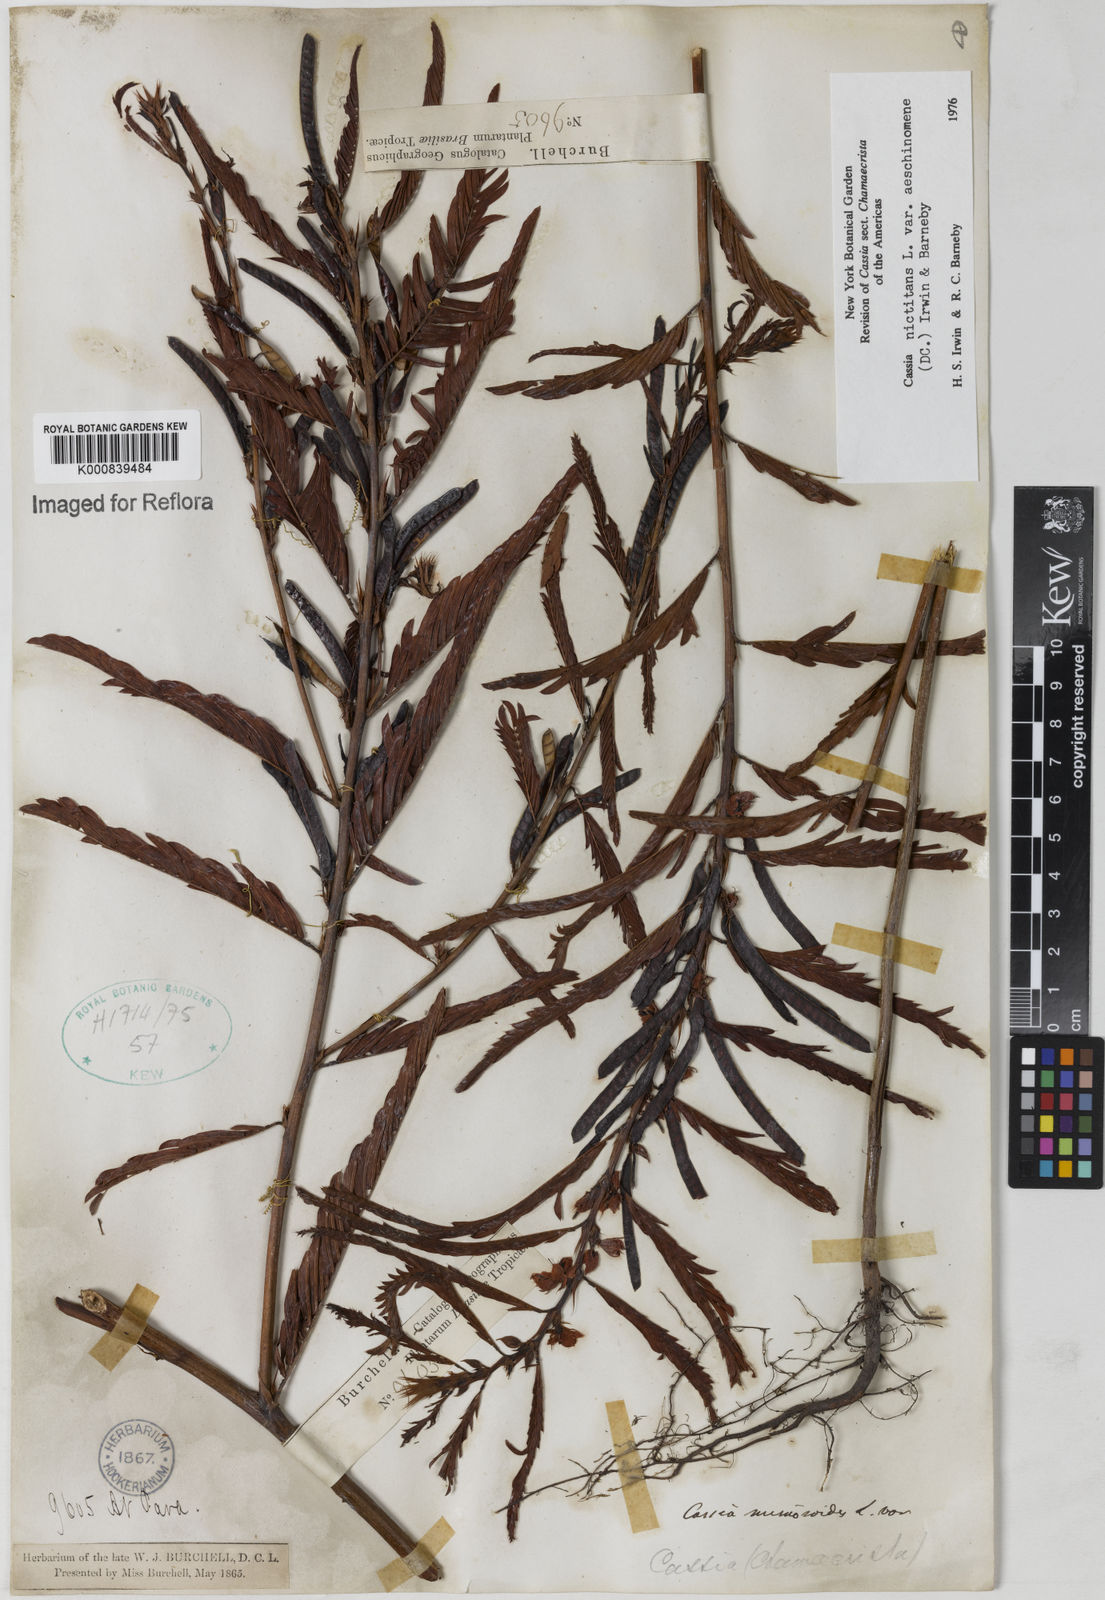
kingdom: Plantae
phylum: Tracheophyta
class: Magnoliopsida
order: Fabales
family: Fabaceae
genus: Chamaecrista
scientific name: Chamaecrista nictitans
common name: Sensitive cassia
